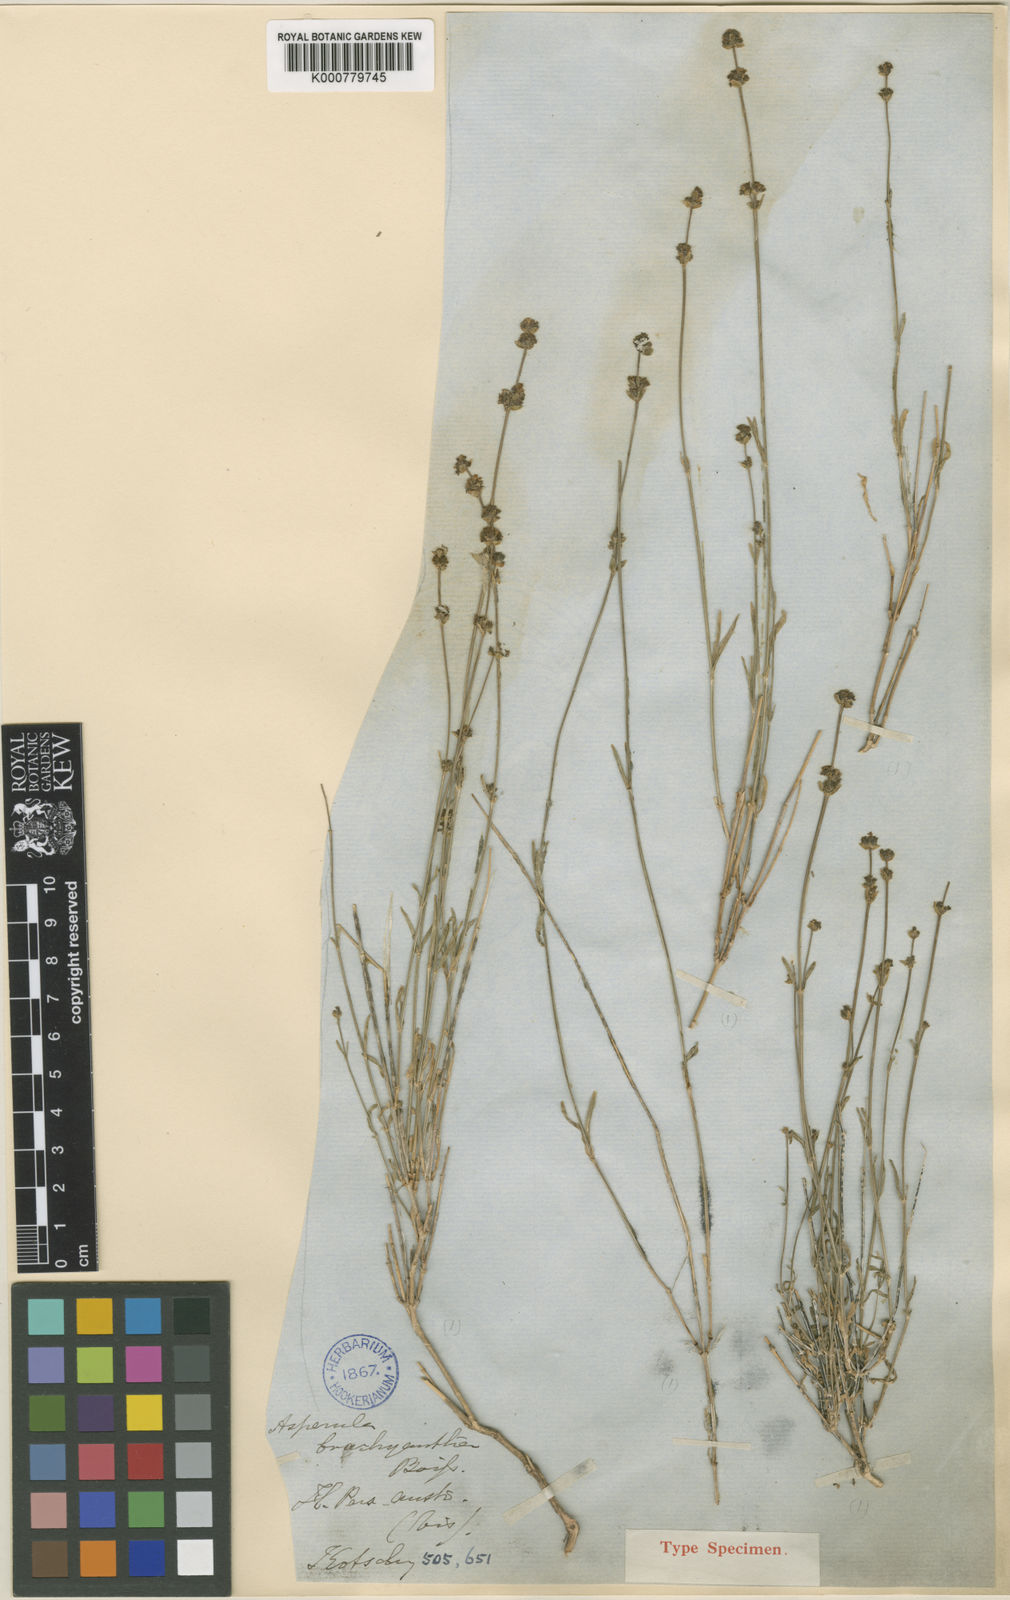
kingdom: Plantae
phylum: Tracheophyta
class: Magnoliopsida
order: Gentianales
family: Rubiaceae
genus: Asperula
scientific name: Asperula brachyantha
